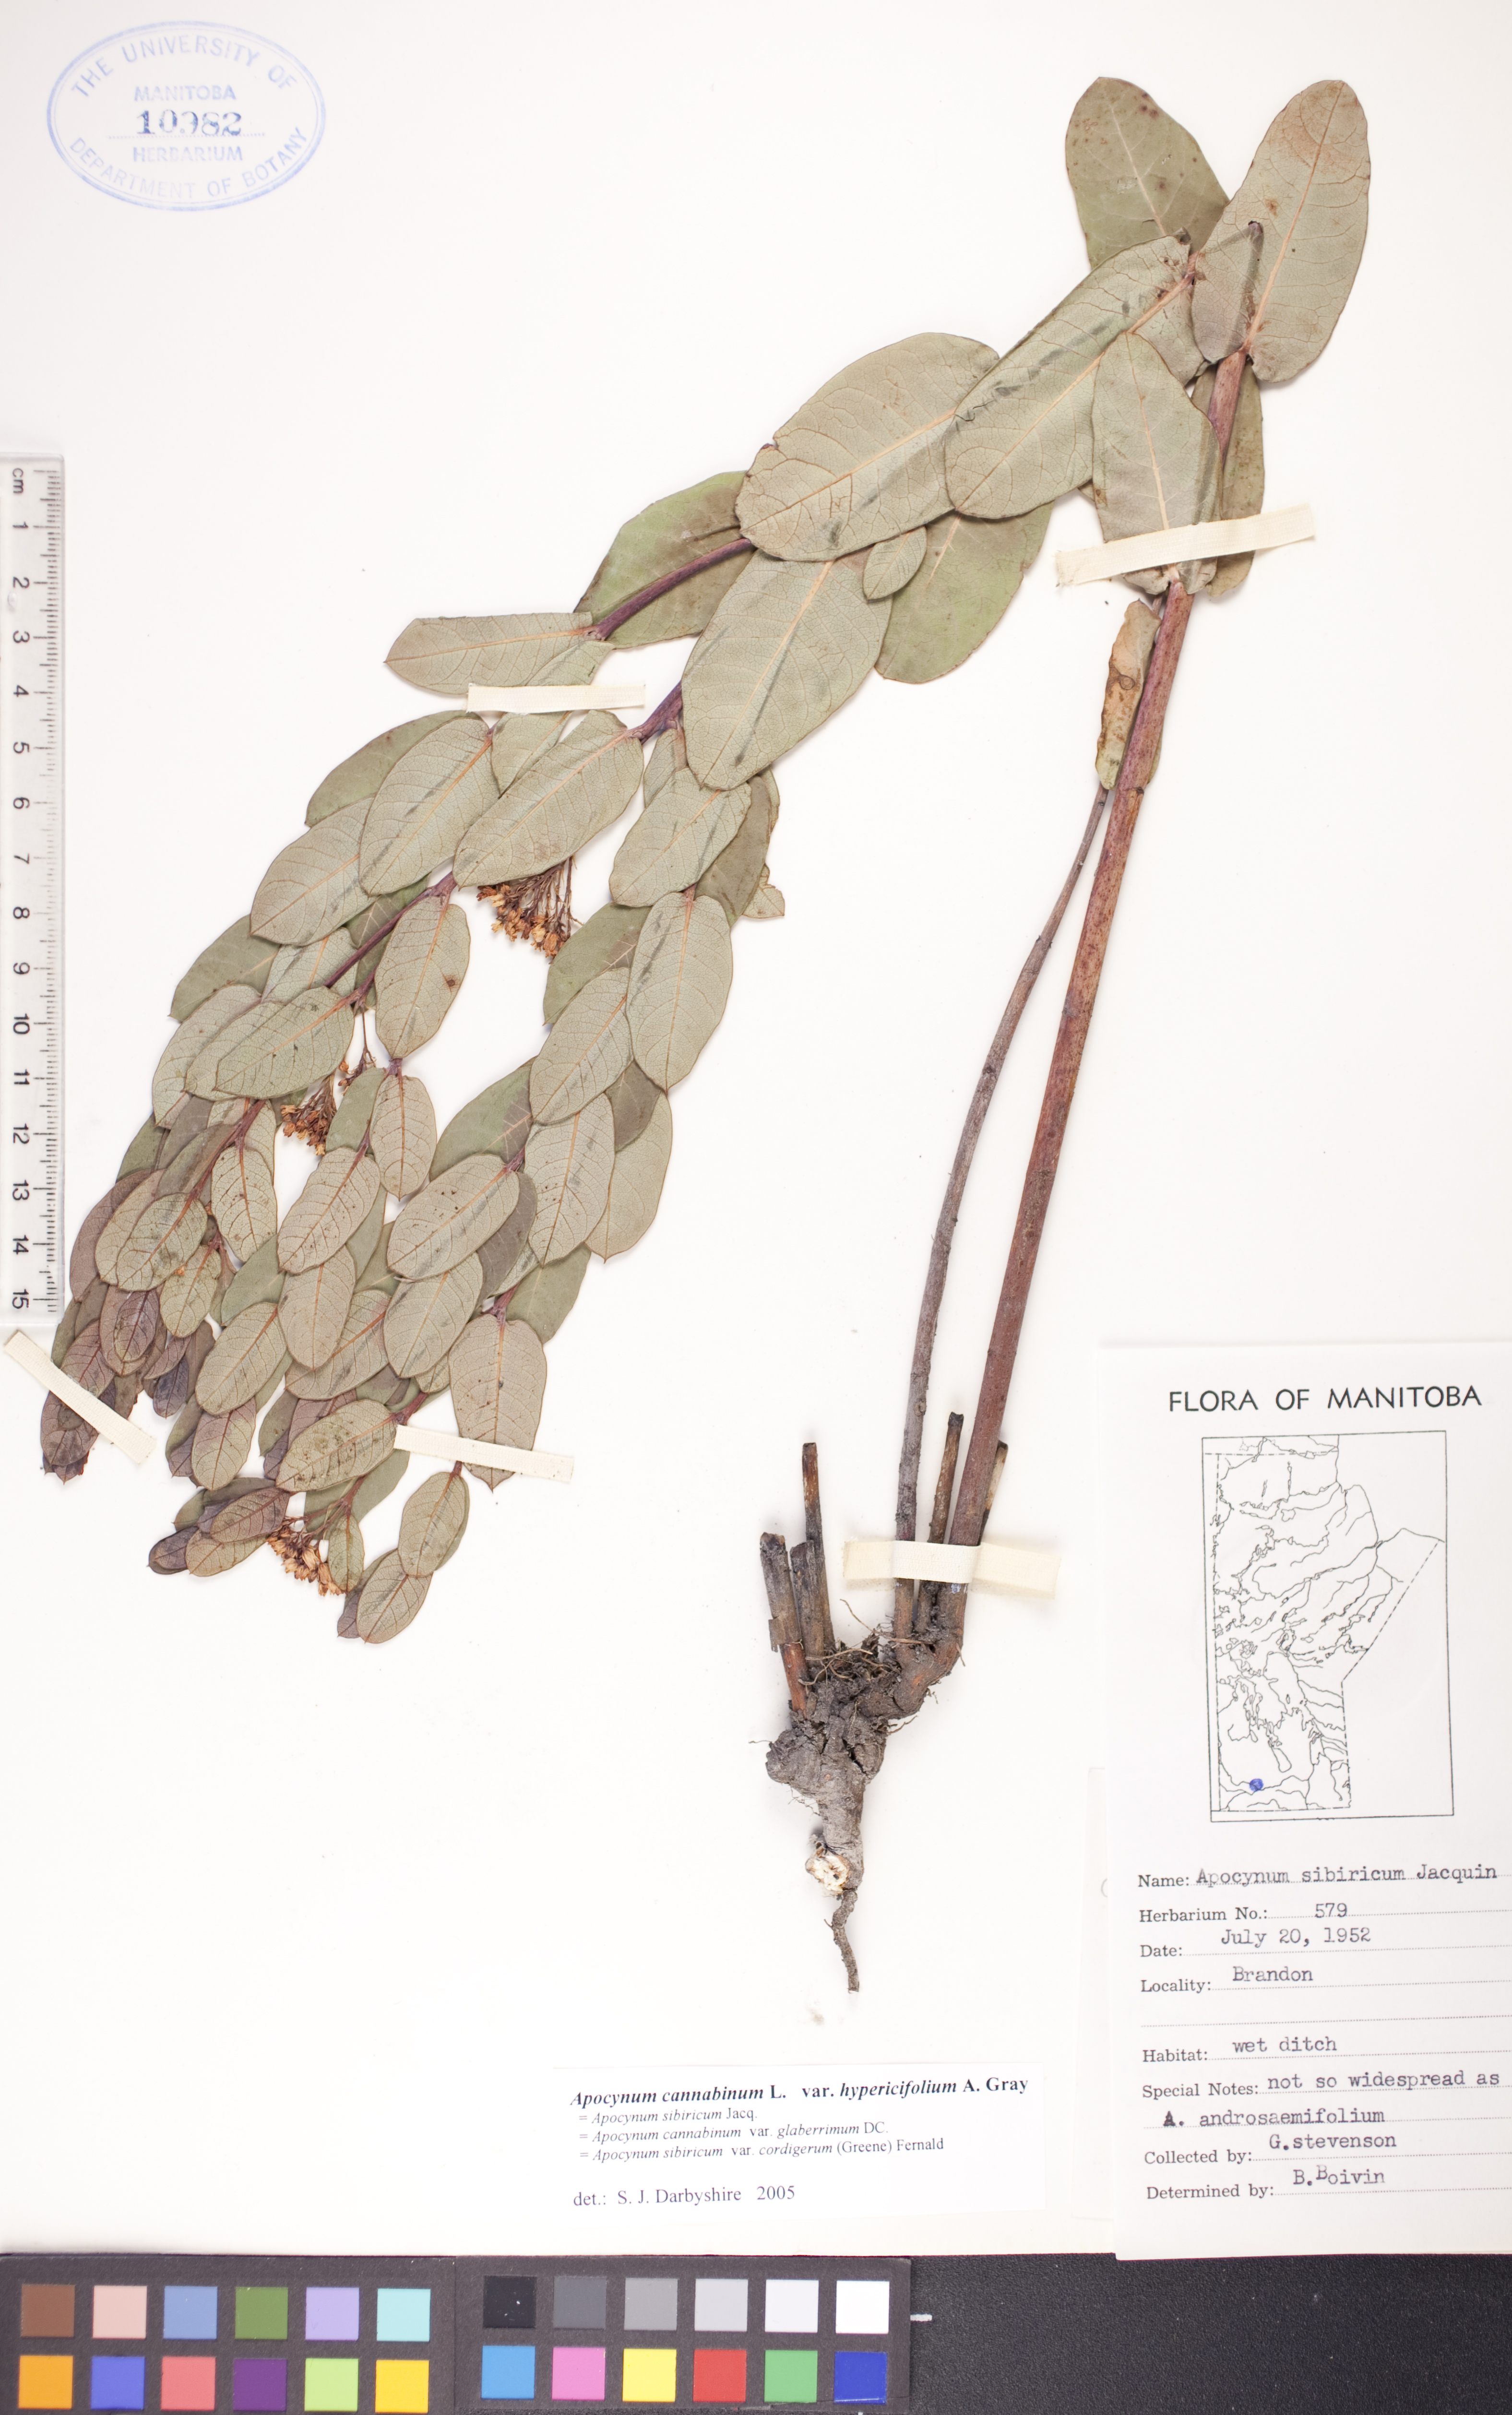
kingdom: Plantae
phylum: Tracheophyta
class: Magnoliopsida
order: Gentianales
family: Apocynaceae
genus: Apocynum
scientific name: Apocynum cannabinum
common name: Hemp dogbane
